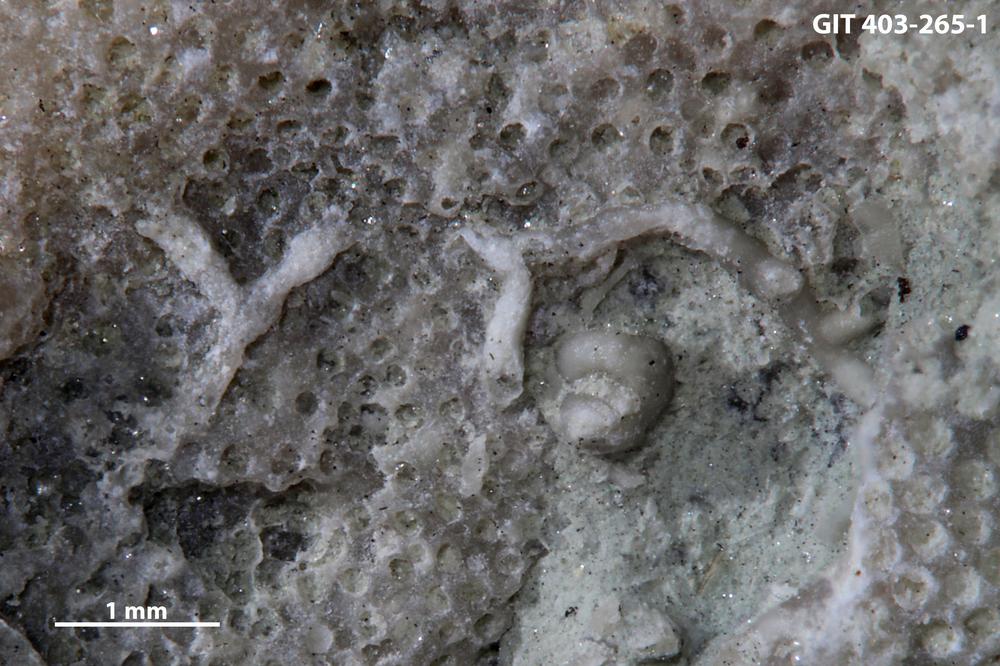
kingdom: Animalia
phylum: Cnidaria
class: Anthozoa
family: Auloporidae
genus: Aulopora
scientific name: Aulopora
